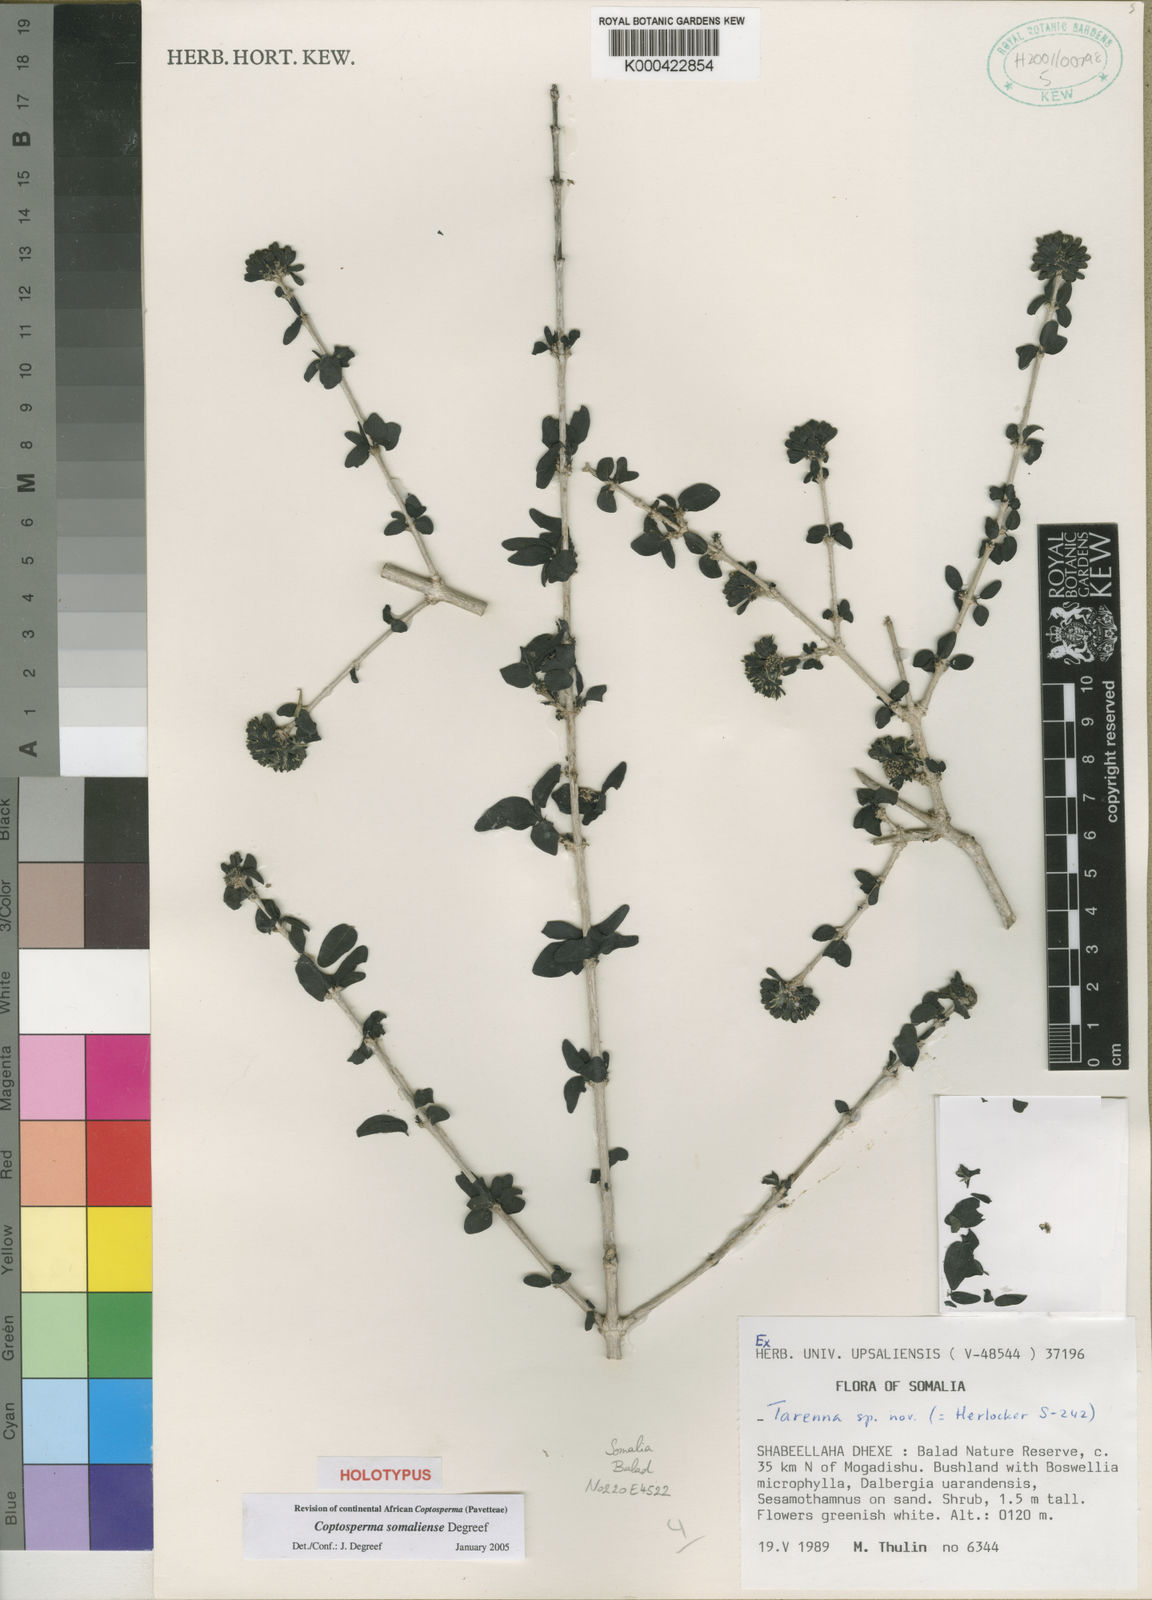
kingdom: Plantae
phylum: Tracheophyta
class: Magnoliopsida
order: Gentianales
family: Rubiaceae
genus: Coptosperma
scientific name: Coptosperma somaliense
